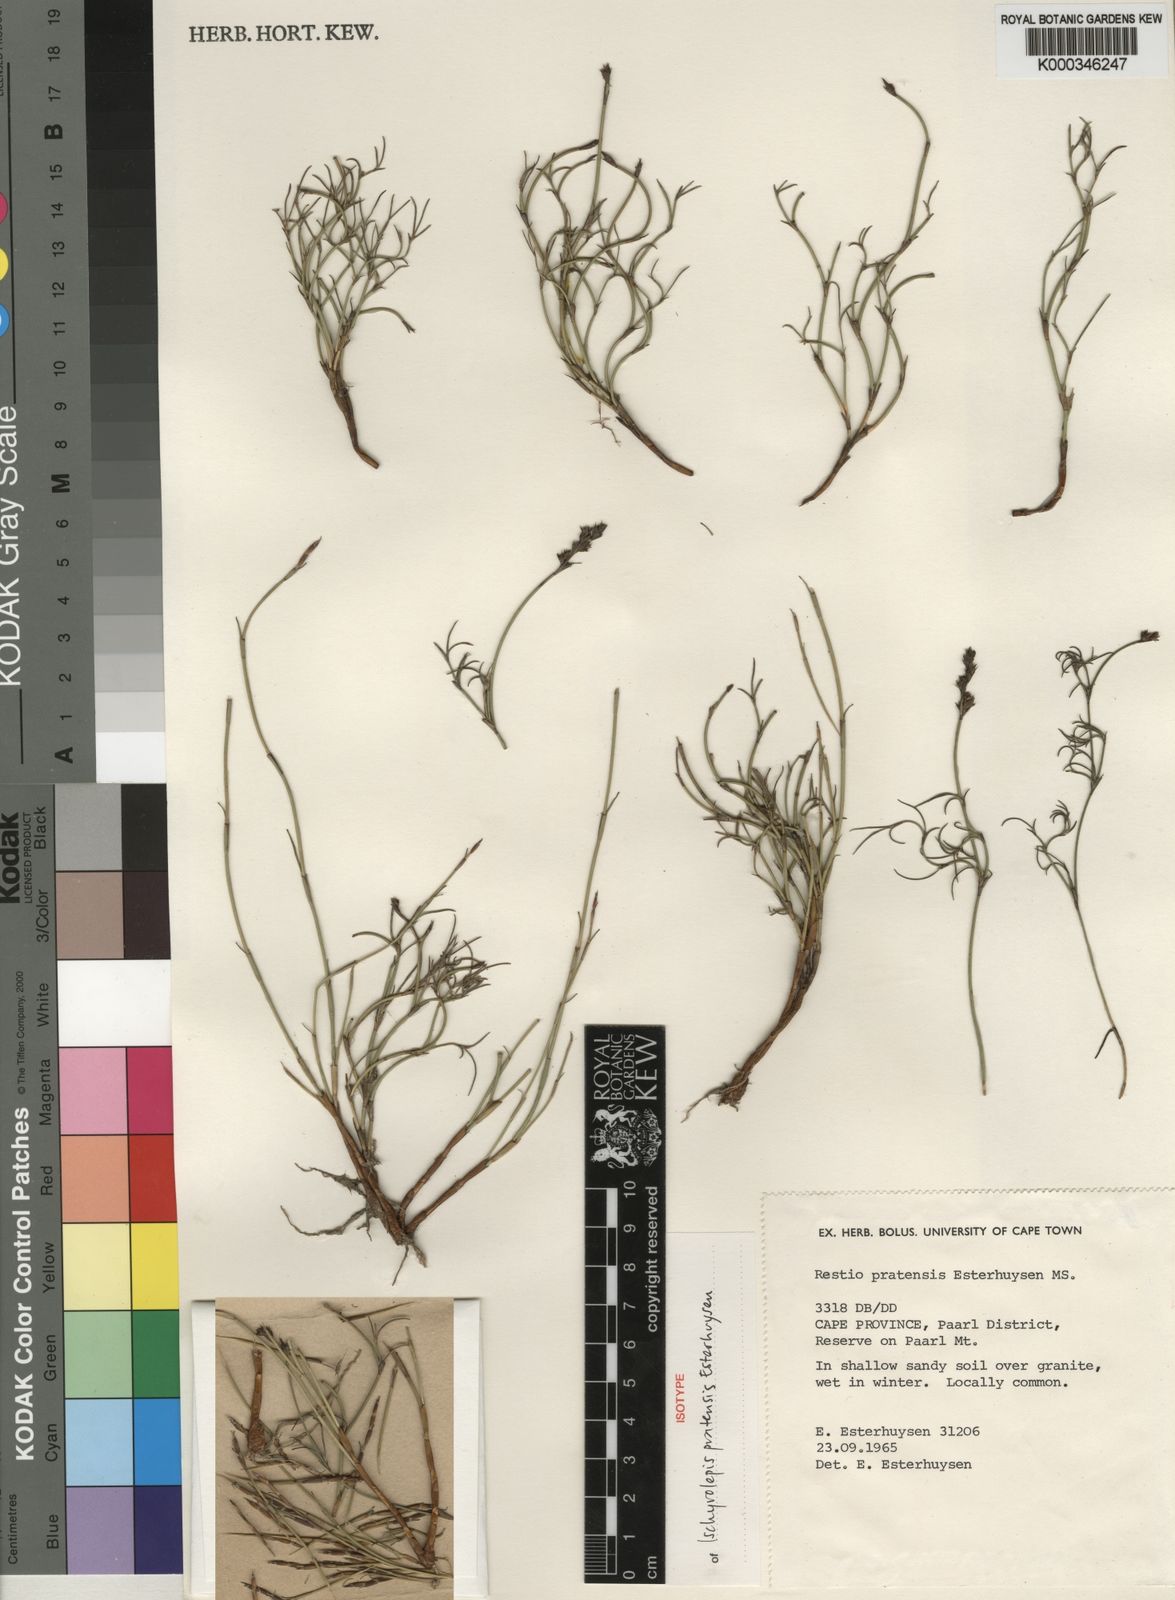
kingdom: Plantae
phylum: Tracheophyta
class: Liliopsida
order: Poales
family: Restionaceae
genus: Restio
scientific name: Restio pratensis
